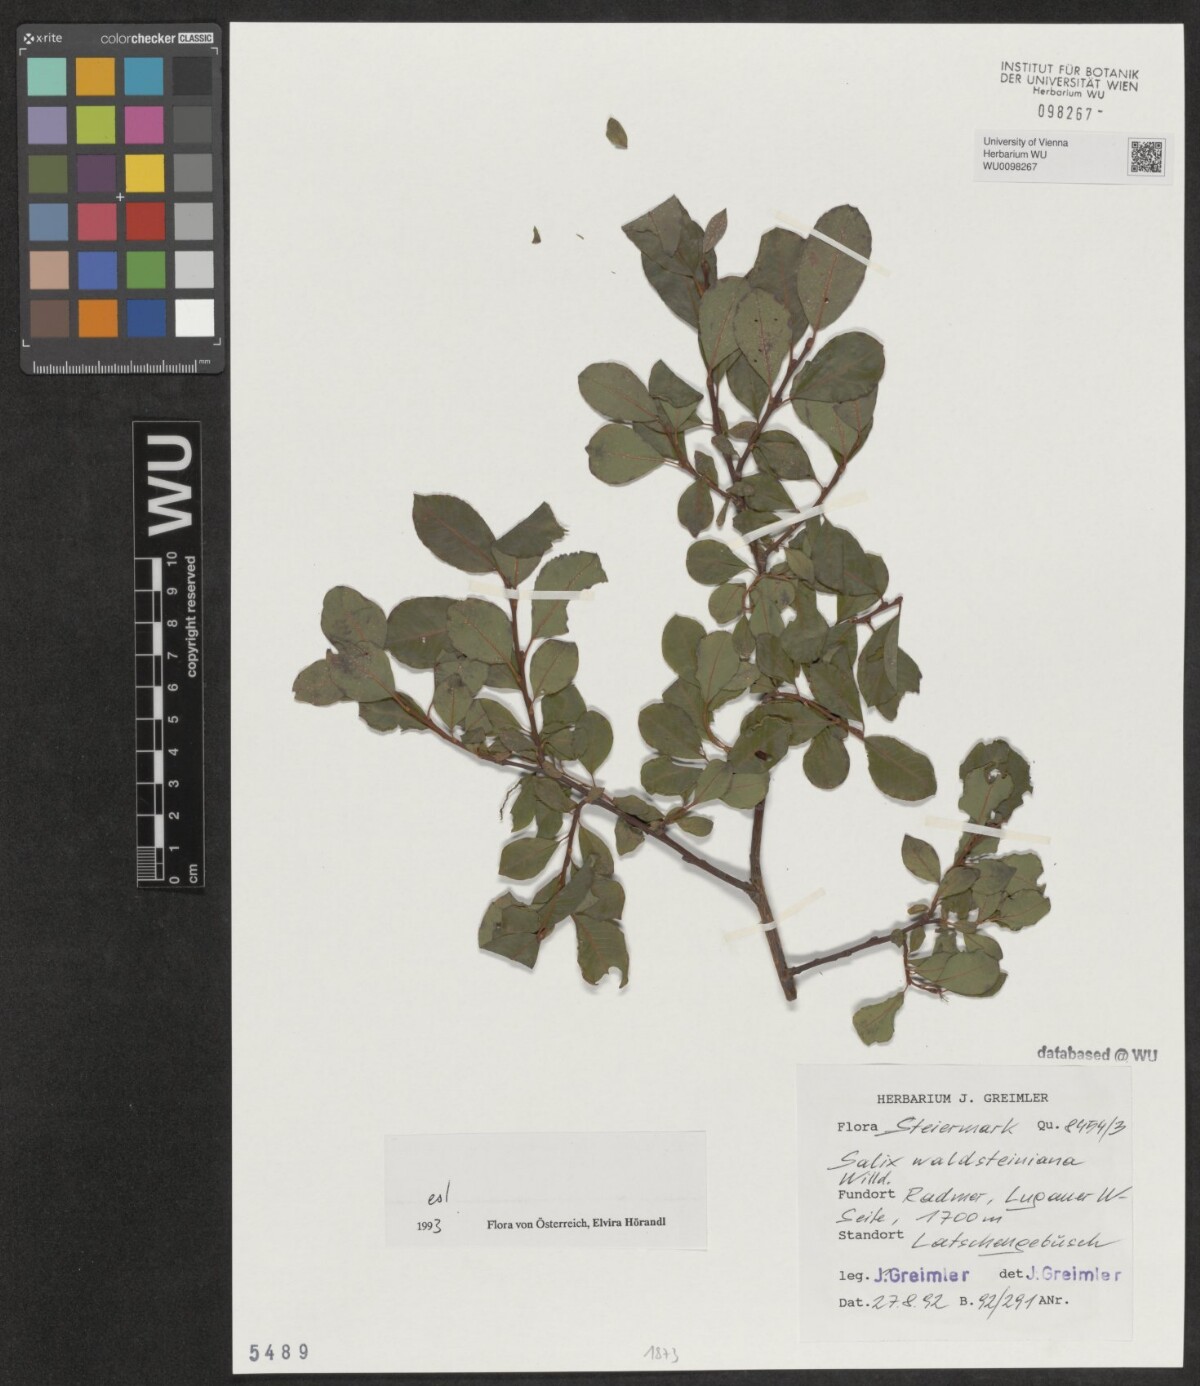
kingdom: Plantae
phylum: Tracheophyta
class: Magnoliopsida
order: Malpighiales
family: Salicaceae
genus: Salix
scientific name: Salix waldsteiniana
